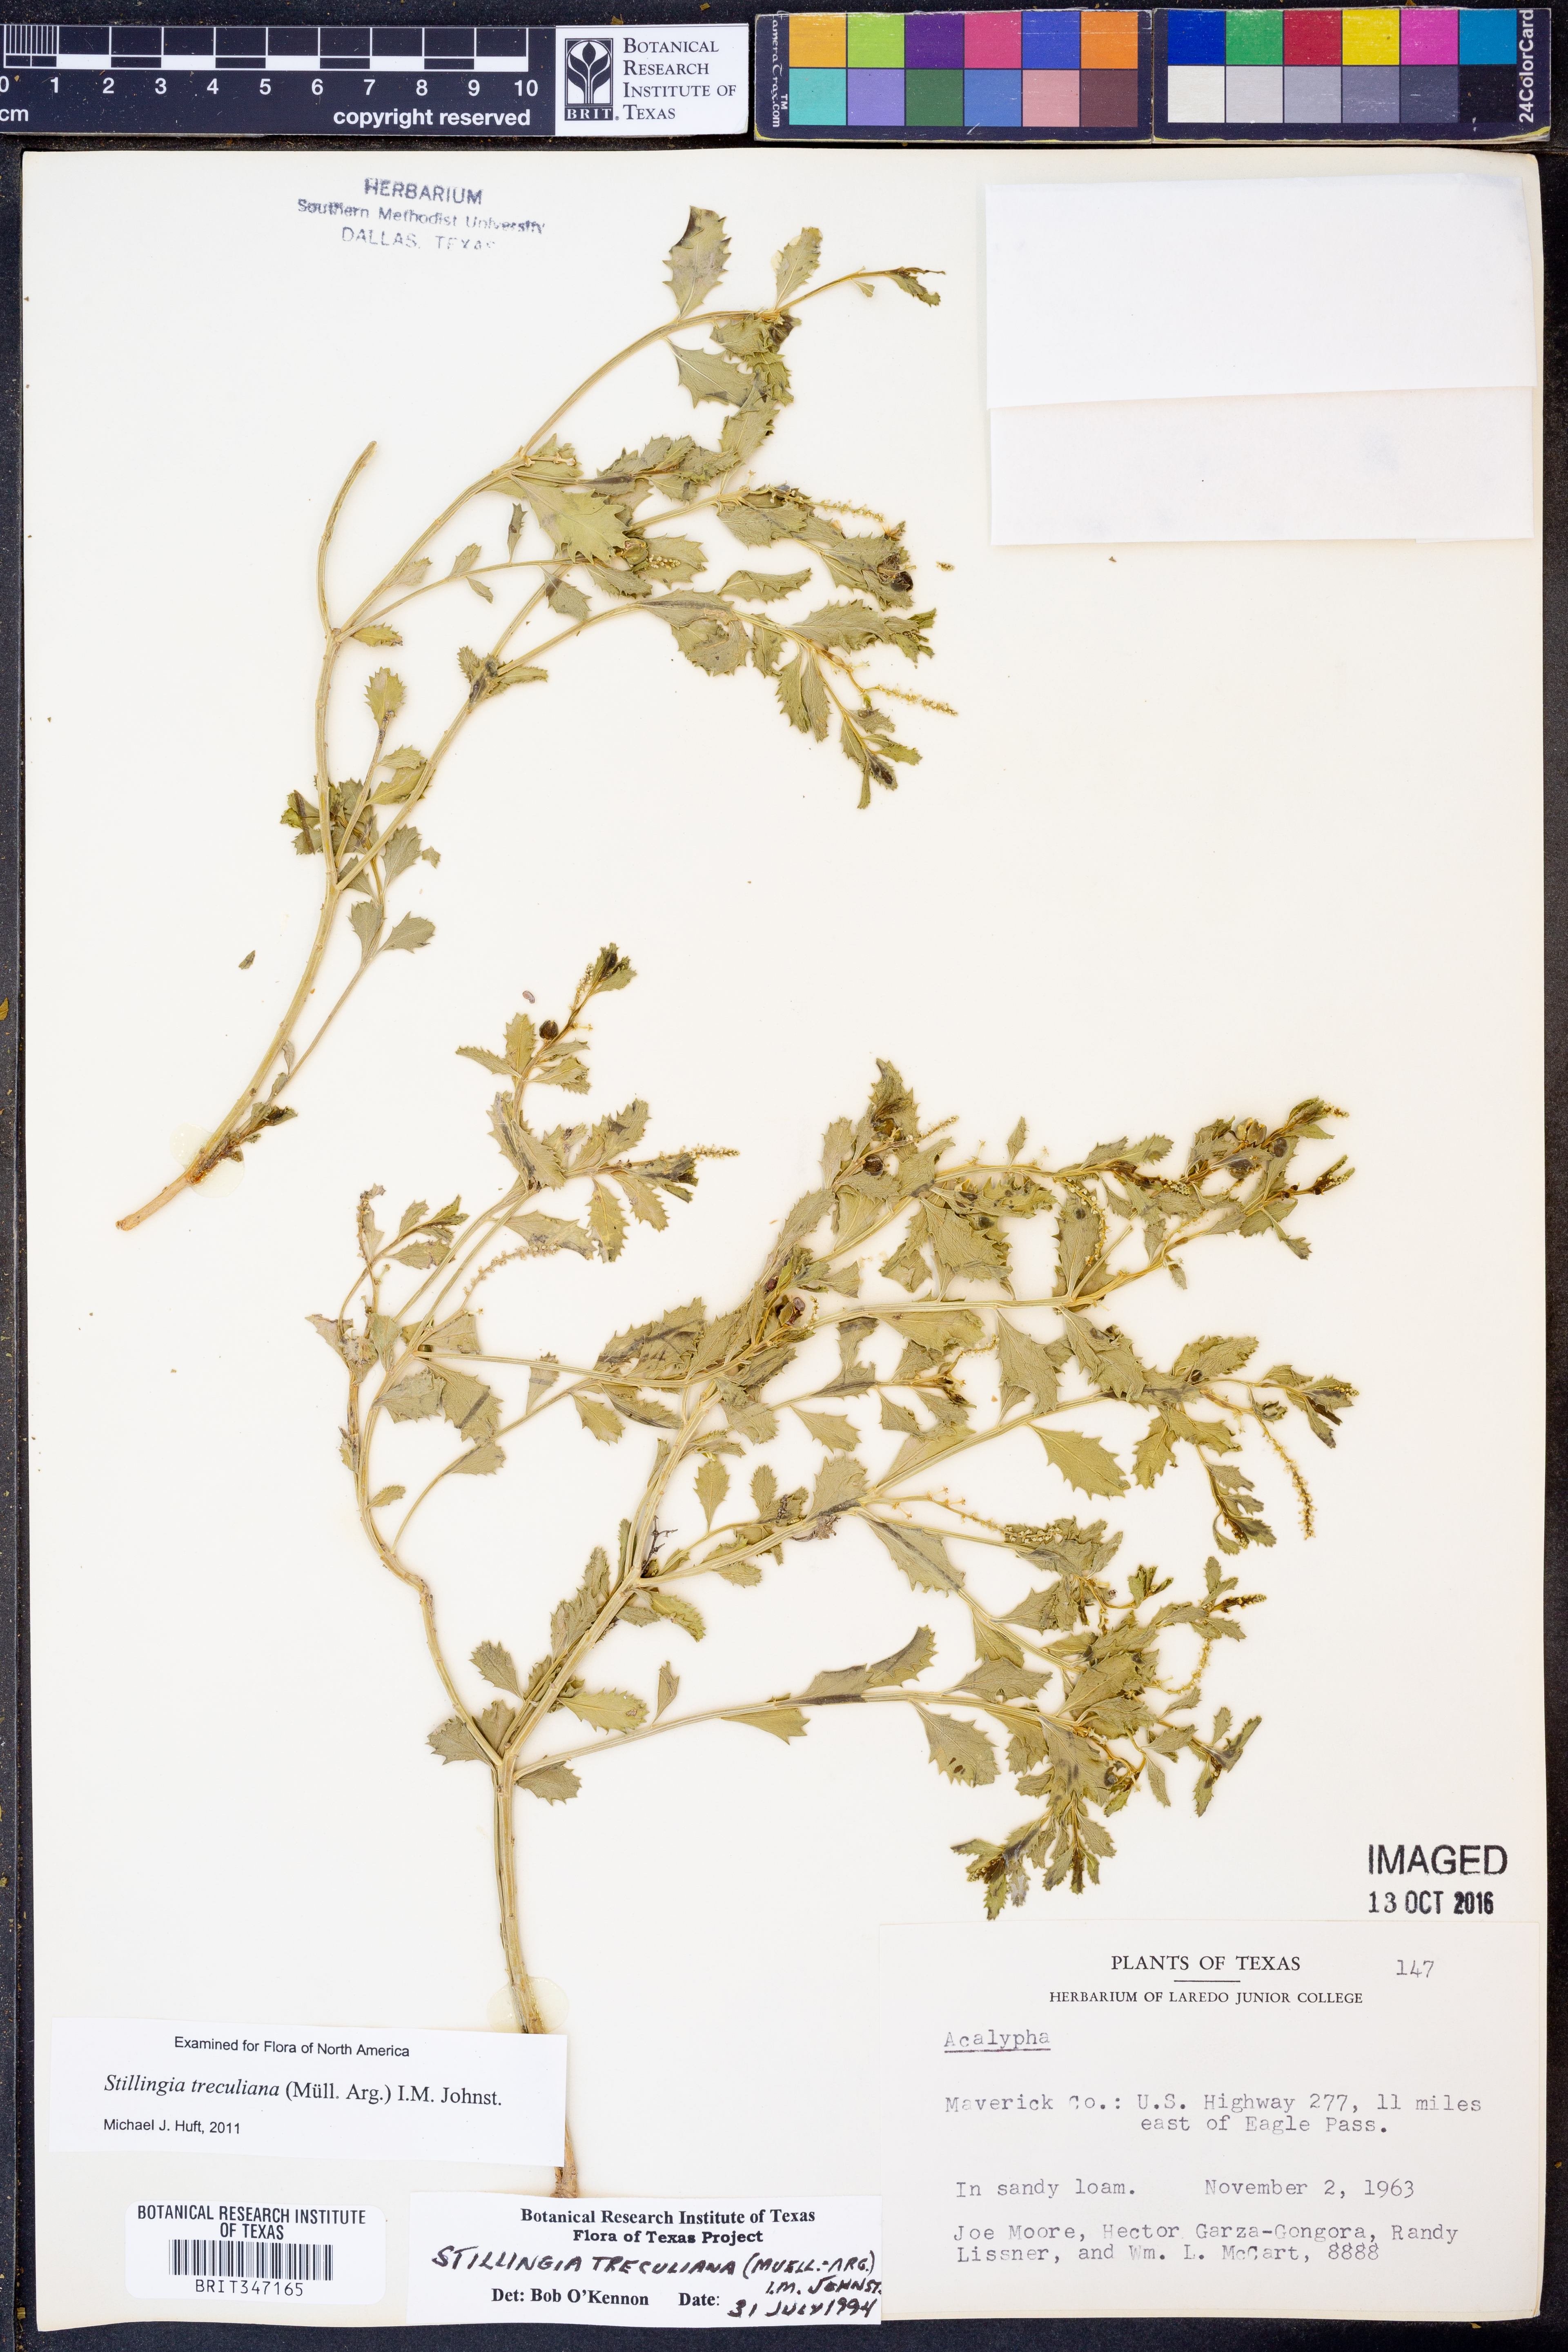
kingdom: Plantae
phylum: Tracheophyta
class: Magnoliopsida
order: Malpighiales
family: Euphorbiaceae
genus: Stillingia
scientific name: Stillingia treculiana
